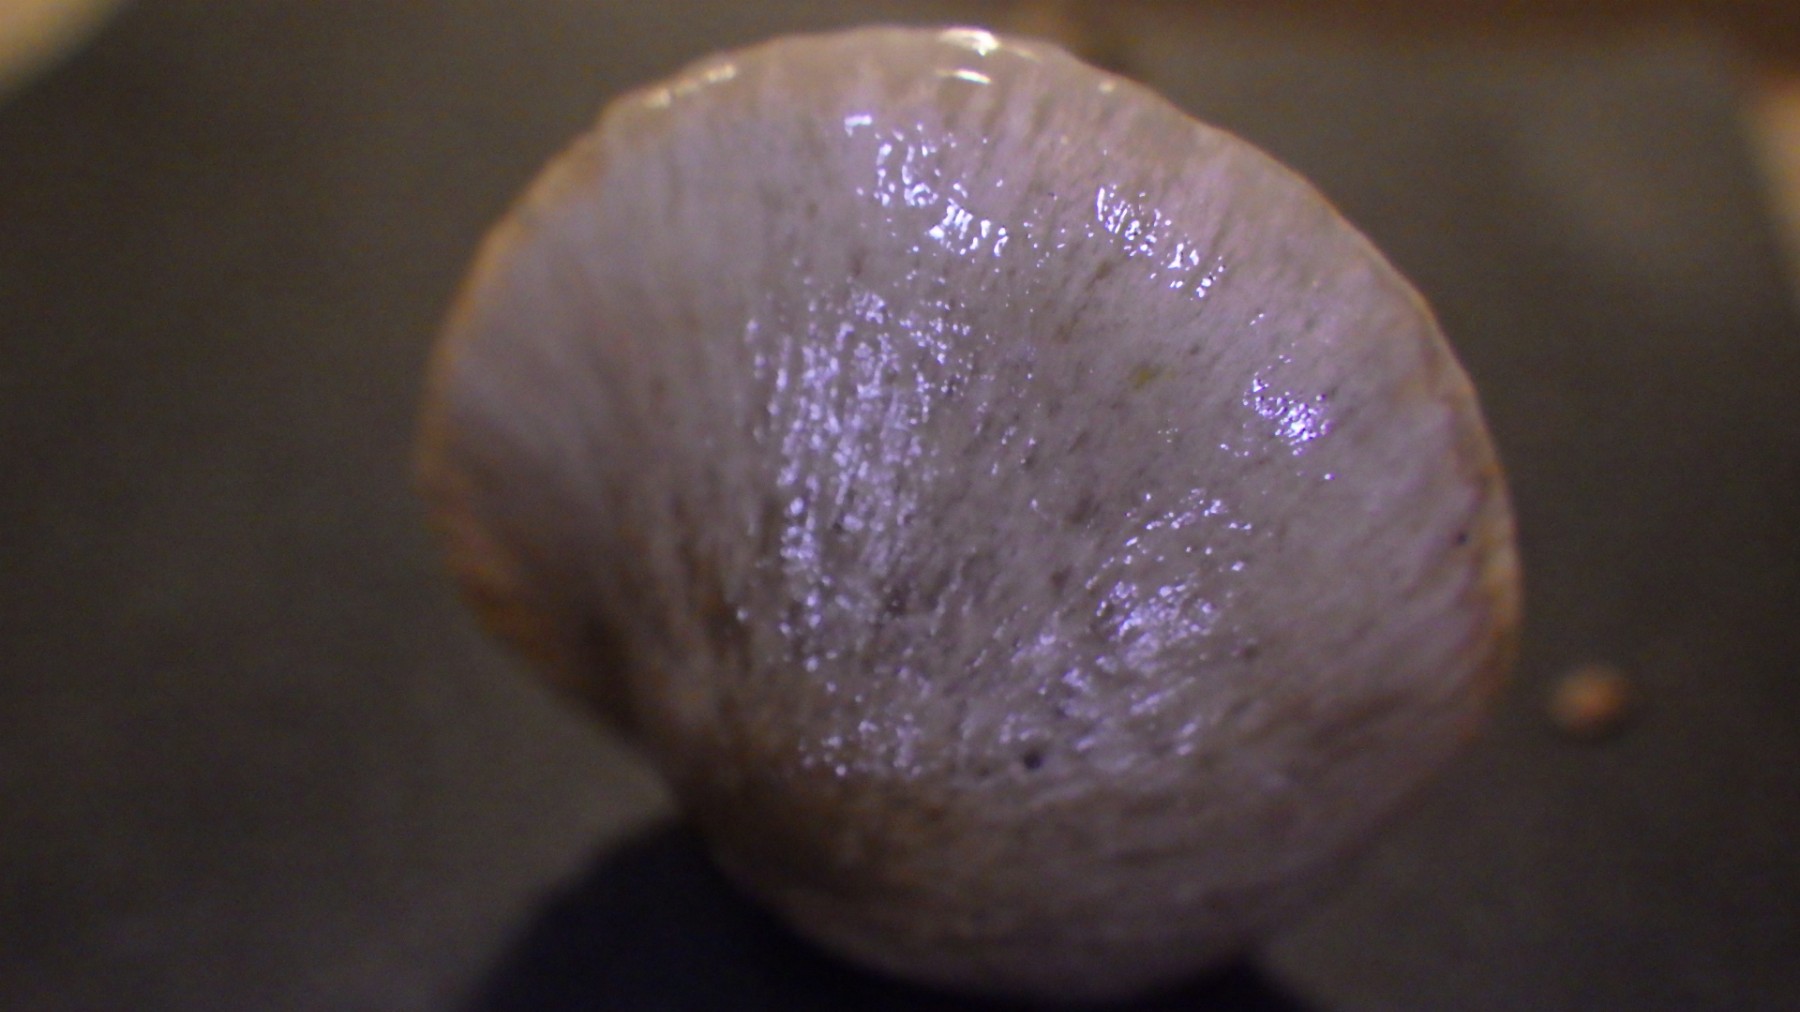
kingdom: Fungi
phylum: Basidiomycota
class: Agaricomycetes
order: Agaricales
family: Hygrophoraceae
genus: Gliophorus
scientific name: Gliophorus irrigatus
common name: slimet vokshat
